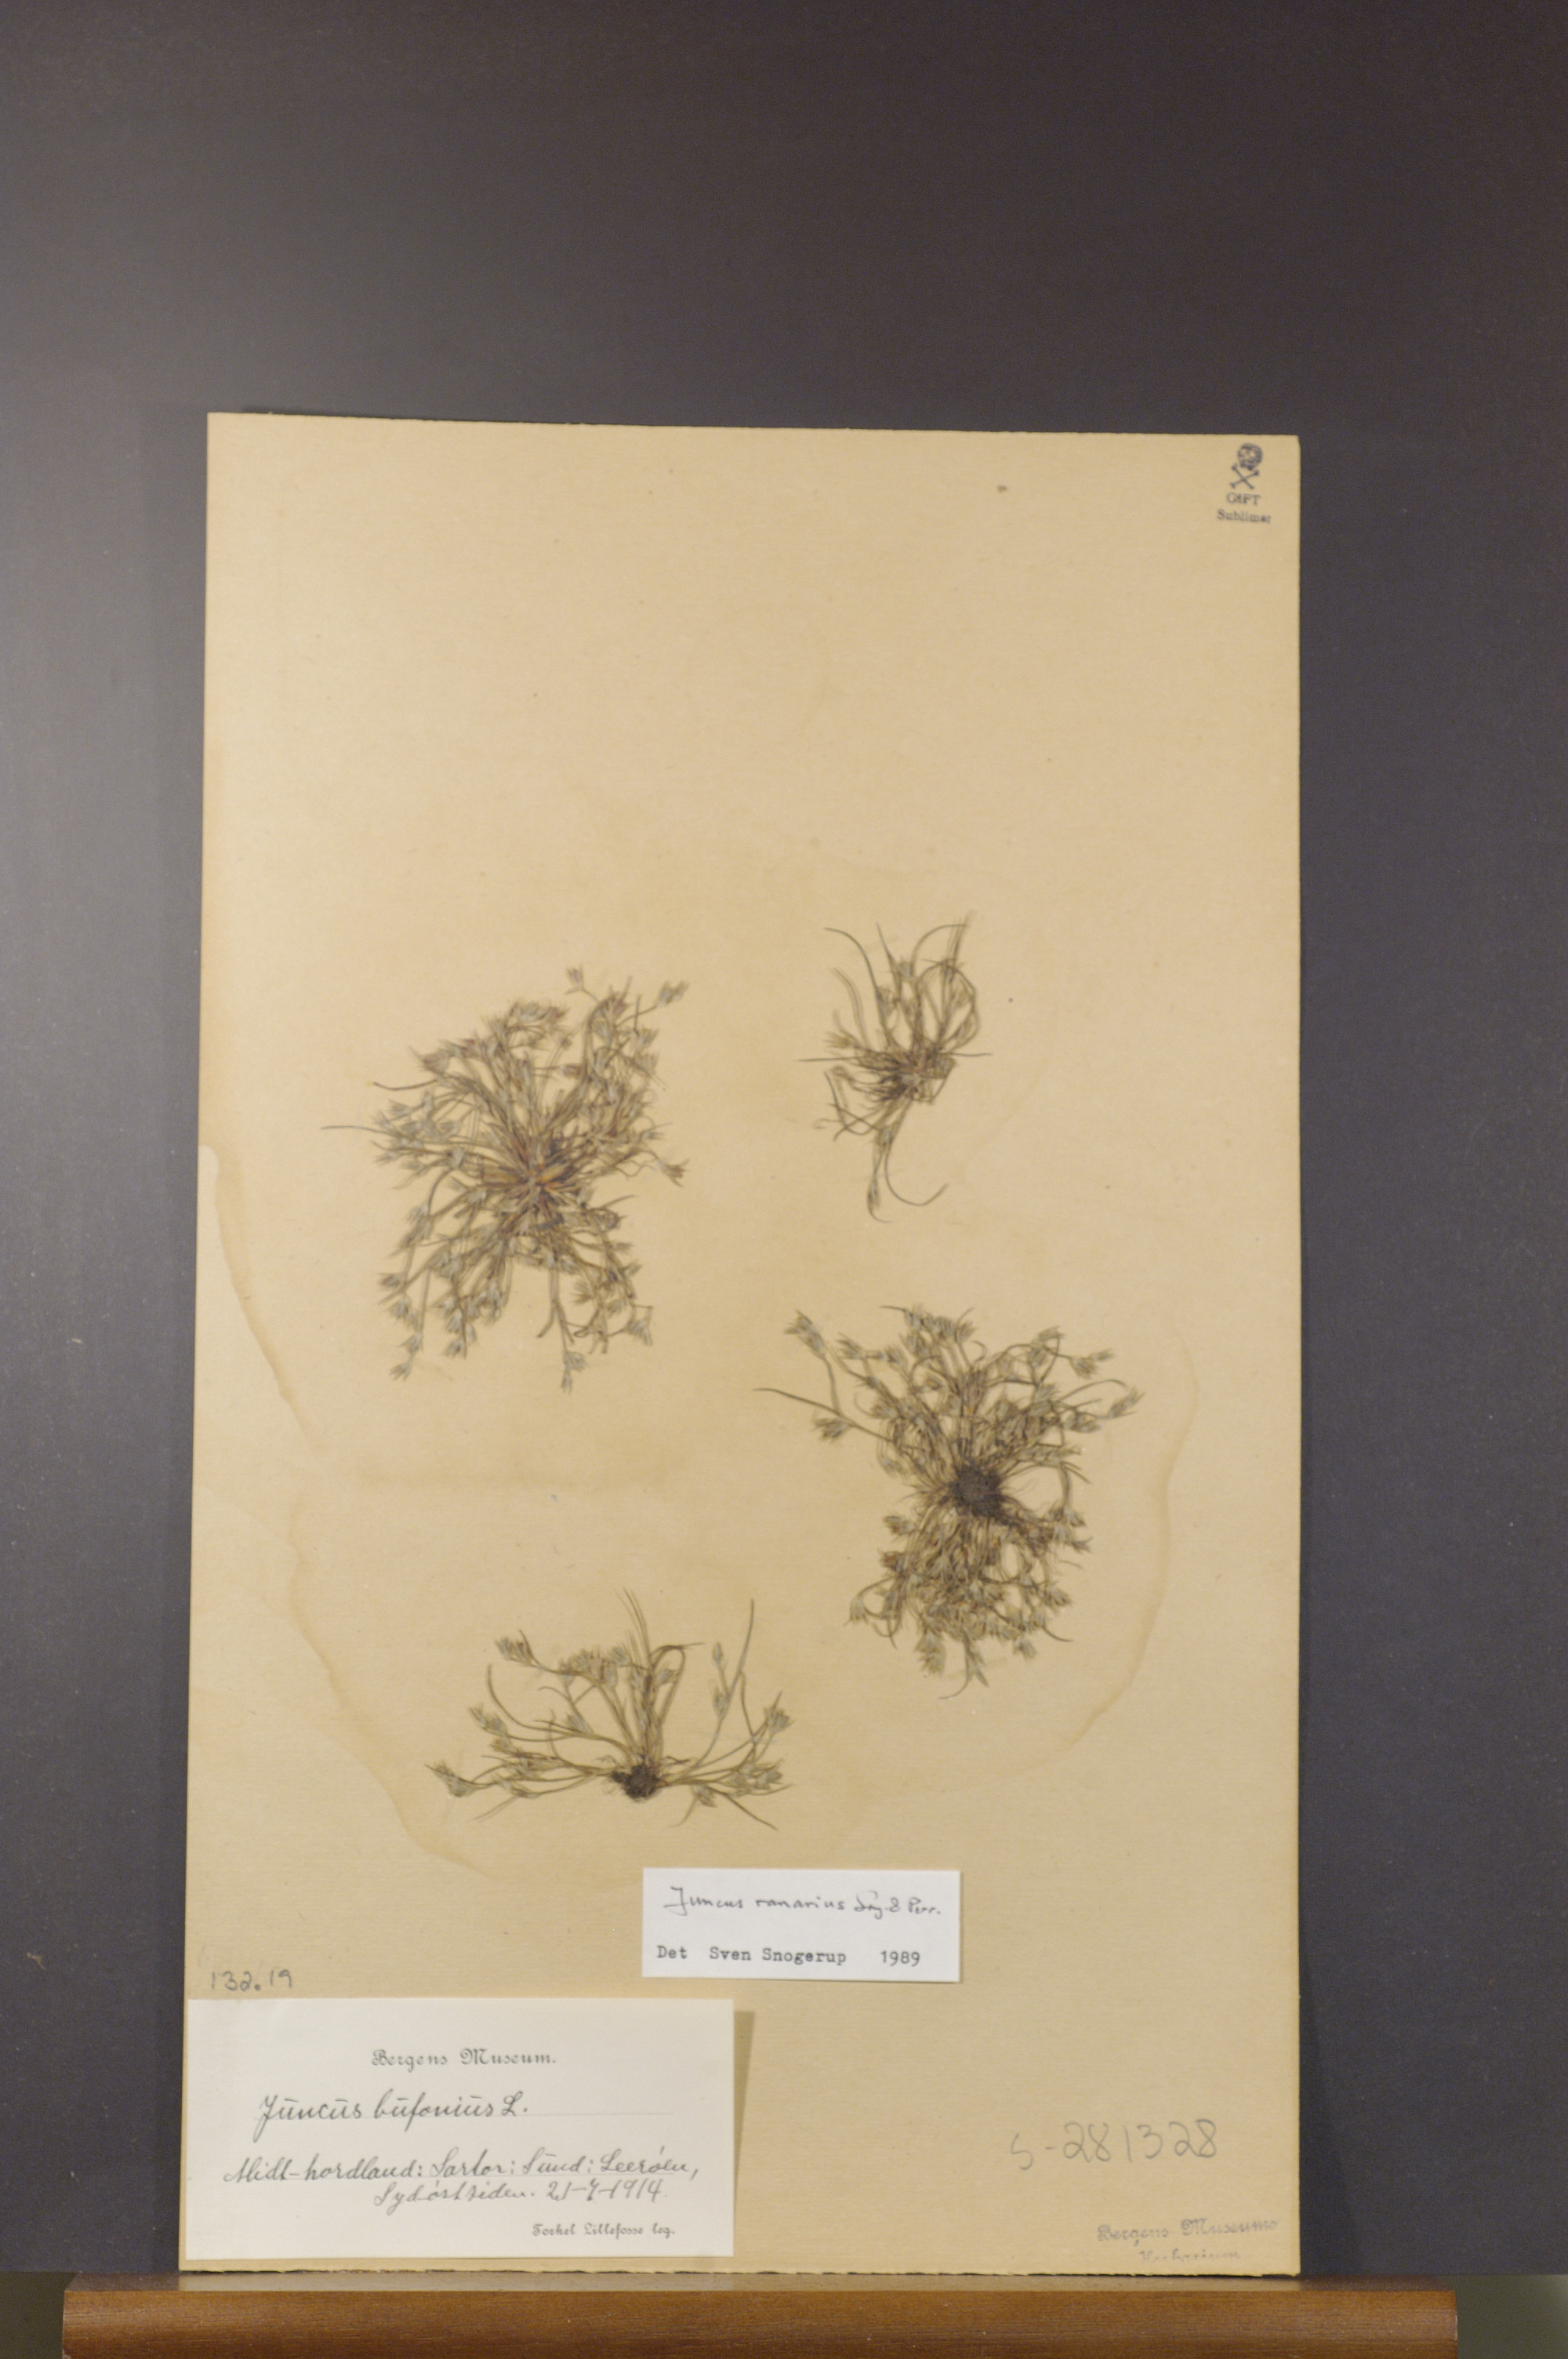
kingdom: Plantae
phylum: Tracheophyta
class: Liliopsida
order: Poales
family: Juncaceae
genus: Juncus
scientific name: Juncus ranarius
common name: Frog rush
